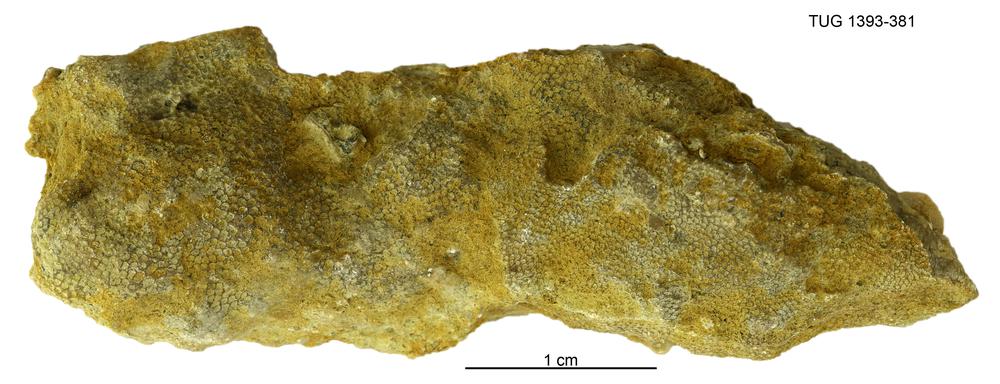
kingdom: Animalia
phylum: Bryozoa
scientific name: Bryozoa
